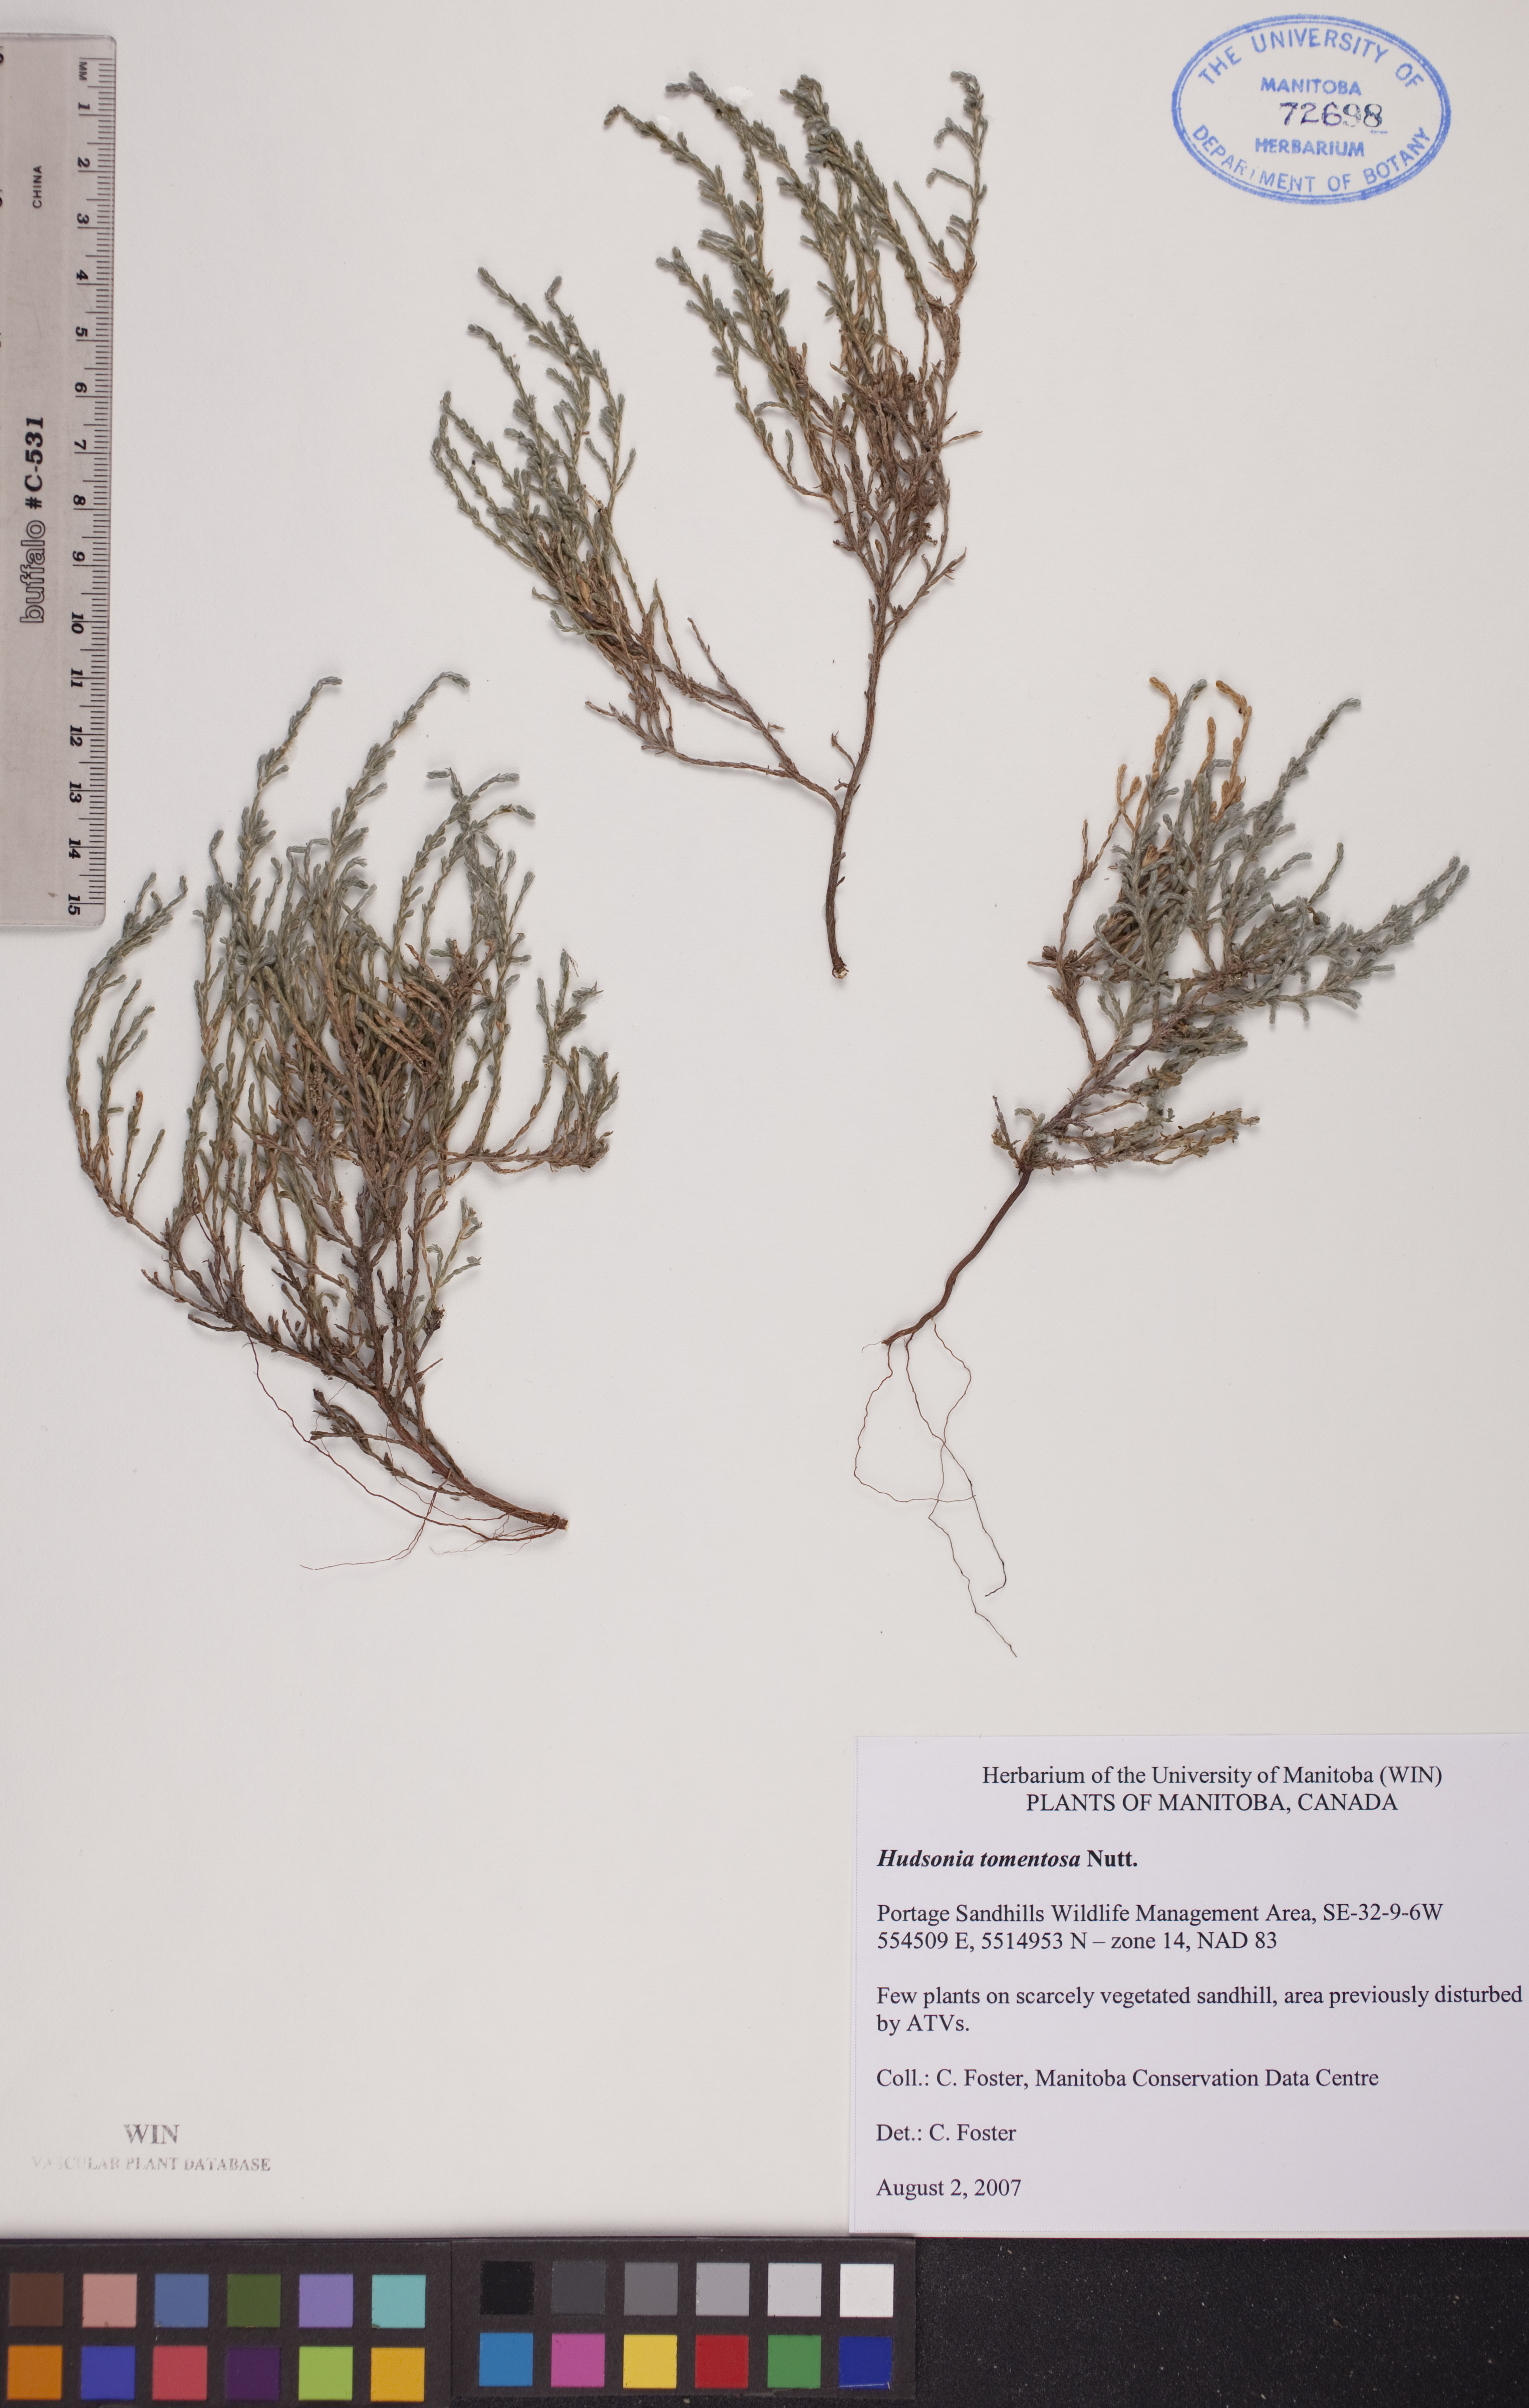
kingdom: Plantae
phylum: Tracheophyta
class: Magnoliopsida
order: Malvales
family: Cistaceae
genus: Hudsonia
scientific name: Hudsonia tomentosa
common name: Beach-heath
